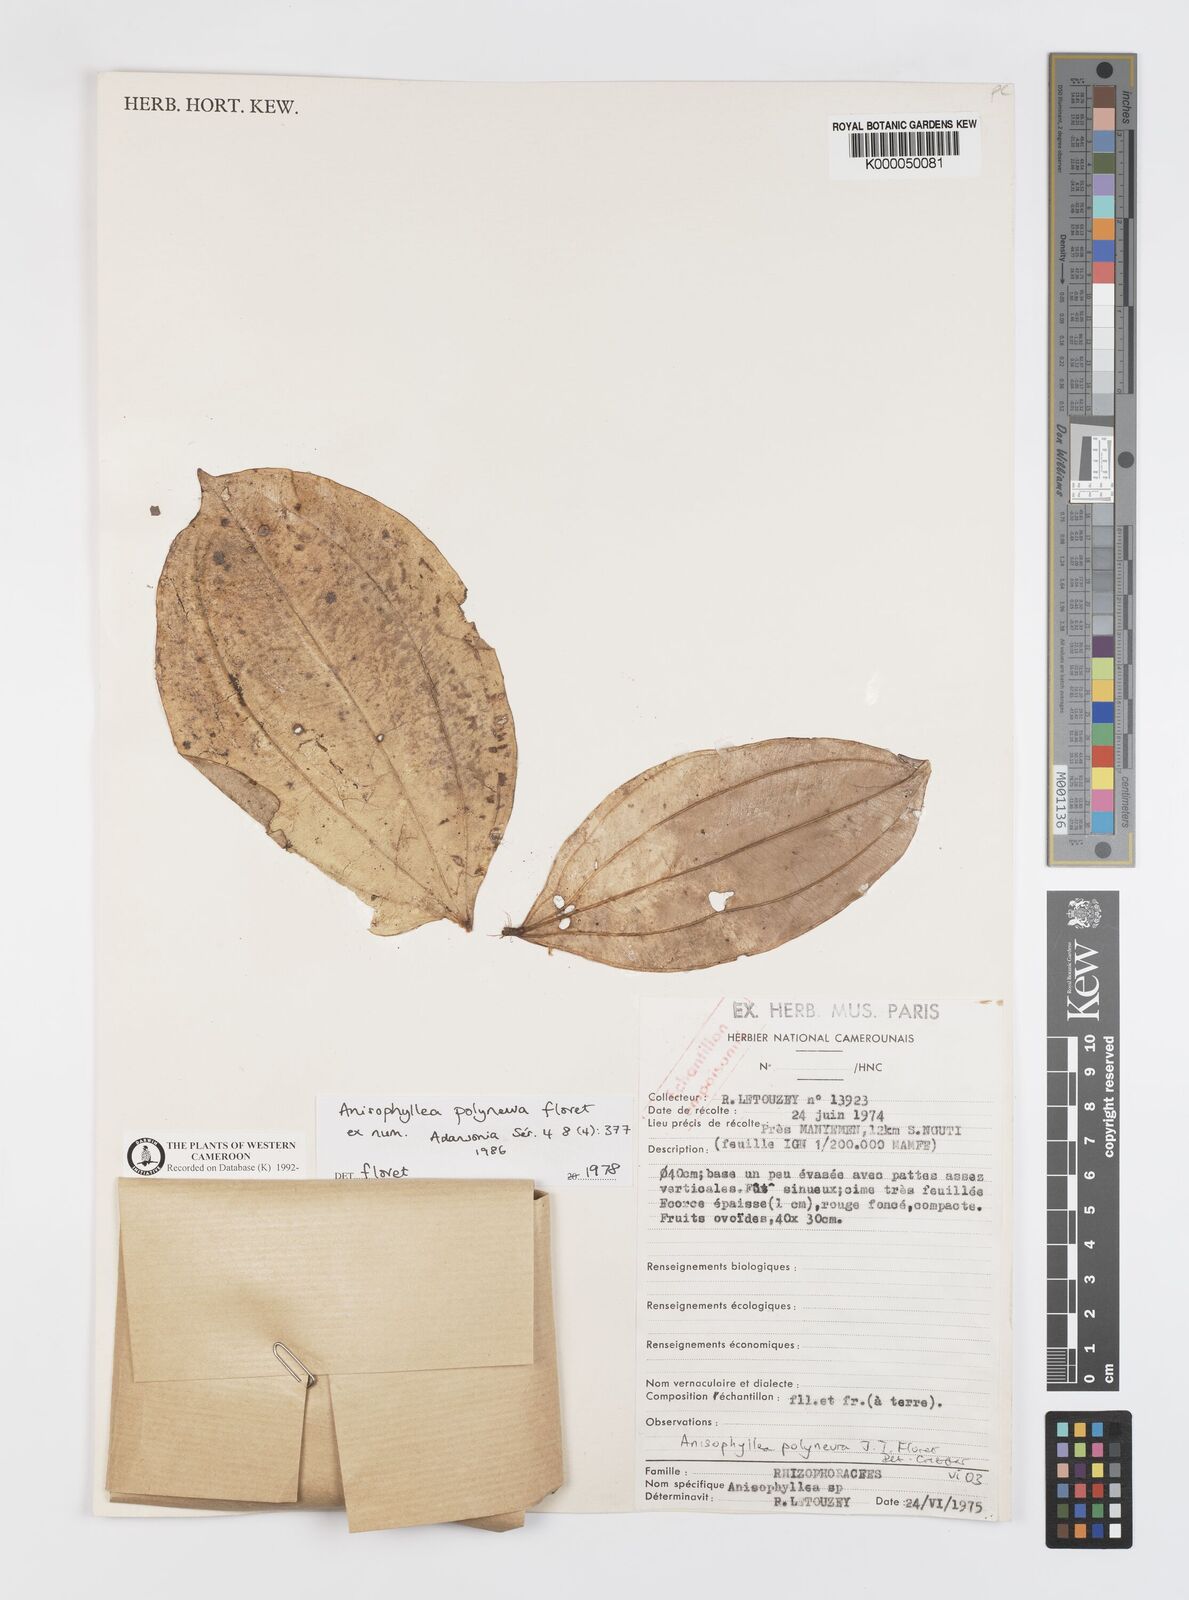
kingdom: Plantae
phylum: Tracheophyta
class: Magnoliopsida
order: Cucurbitales
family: Anisophylleaceae
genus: Anisophyllea
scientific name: Anisophyllea polyneura
